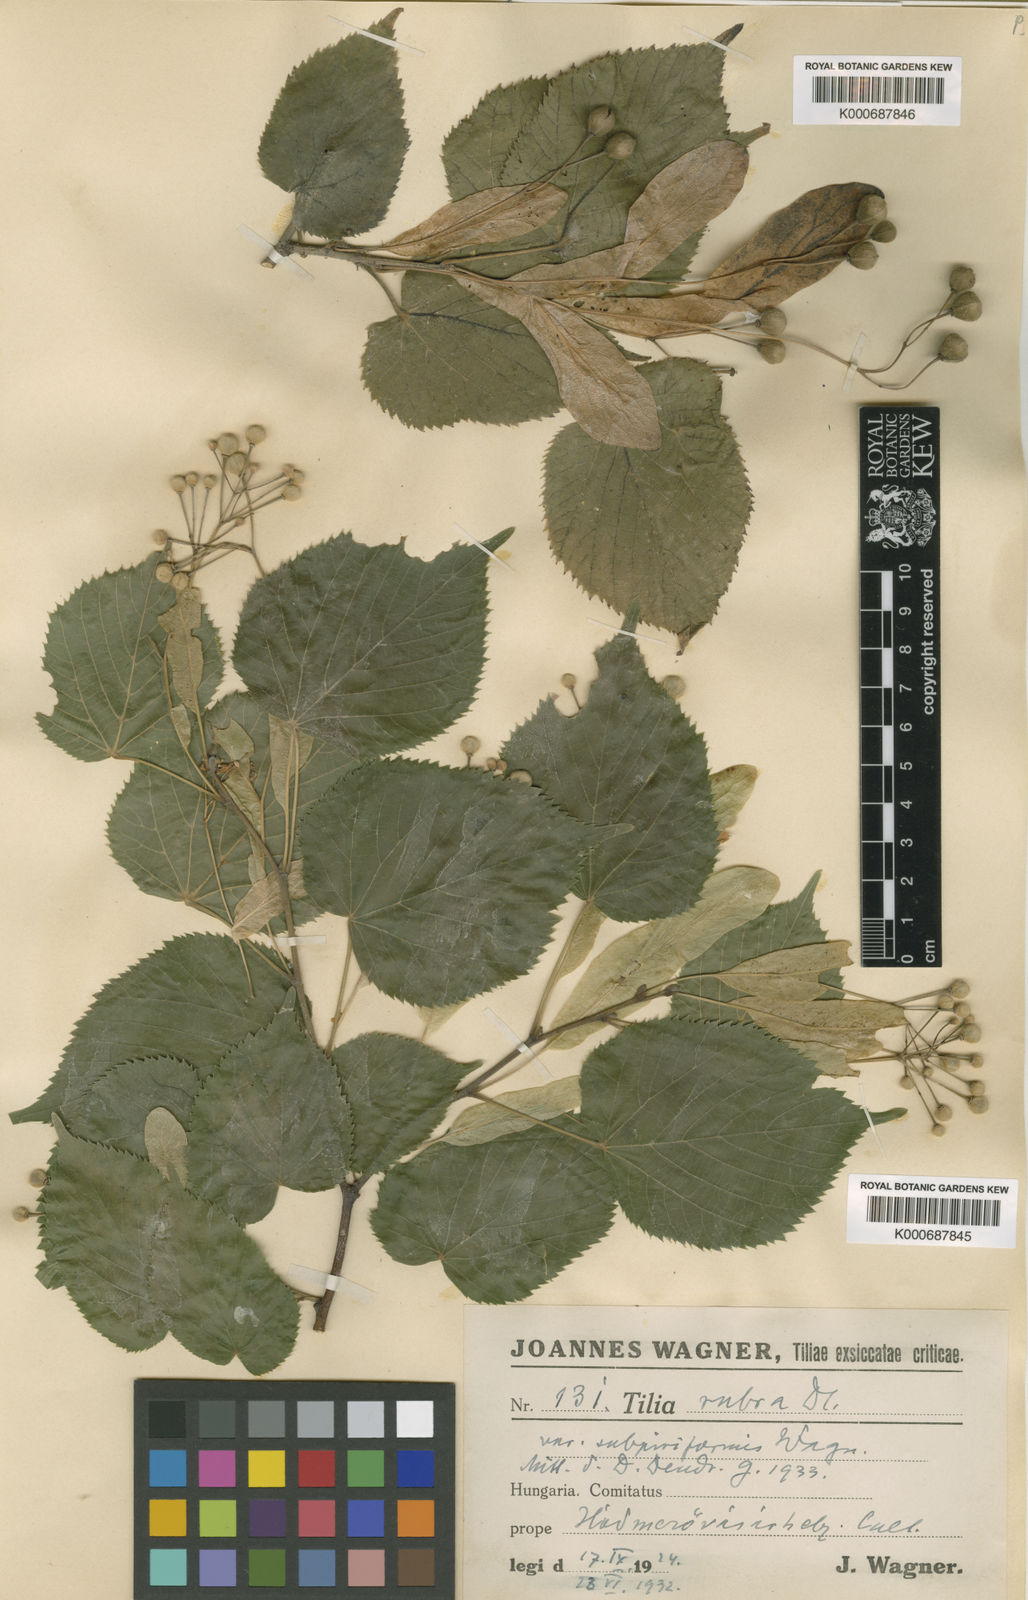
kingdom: Plantae
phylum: Tracheophyta
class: Magnoliopsida
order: Malvales
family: Malvaceae
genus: Tilia
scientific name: Tilia platyphyllos
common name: Large-leaved lime
